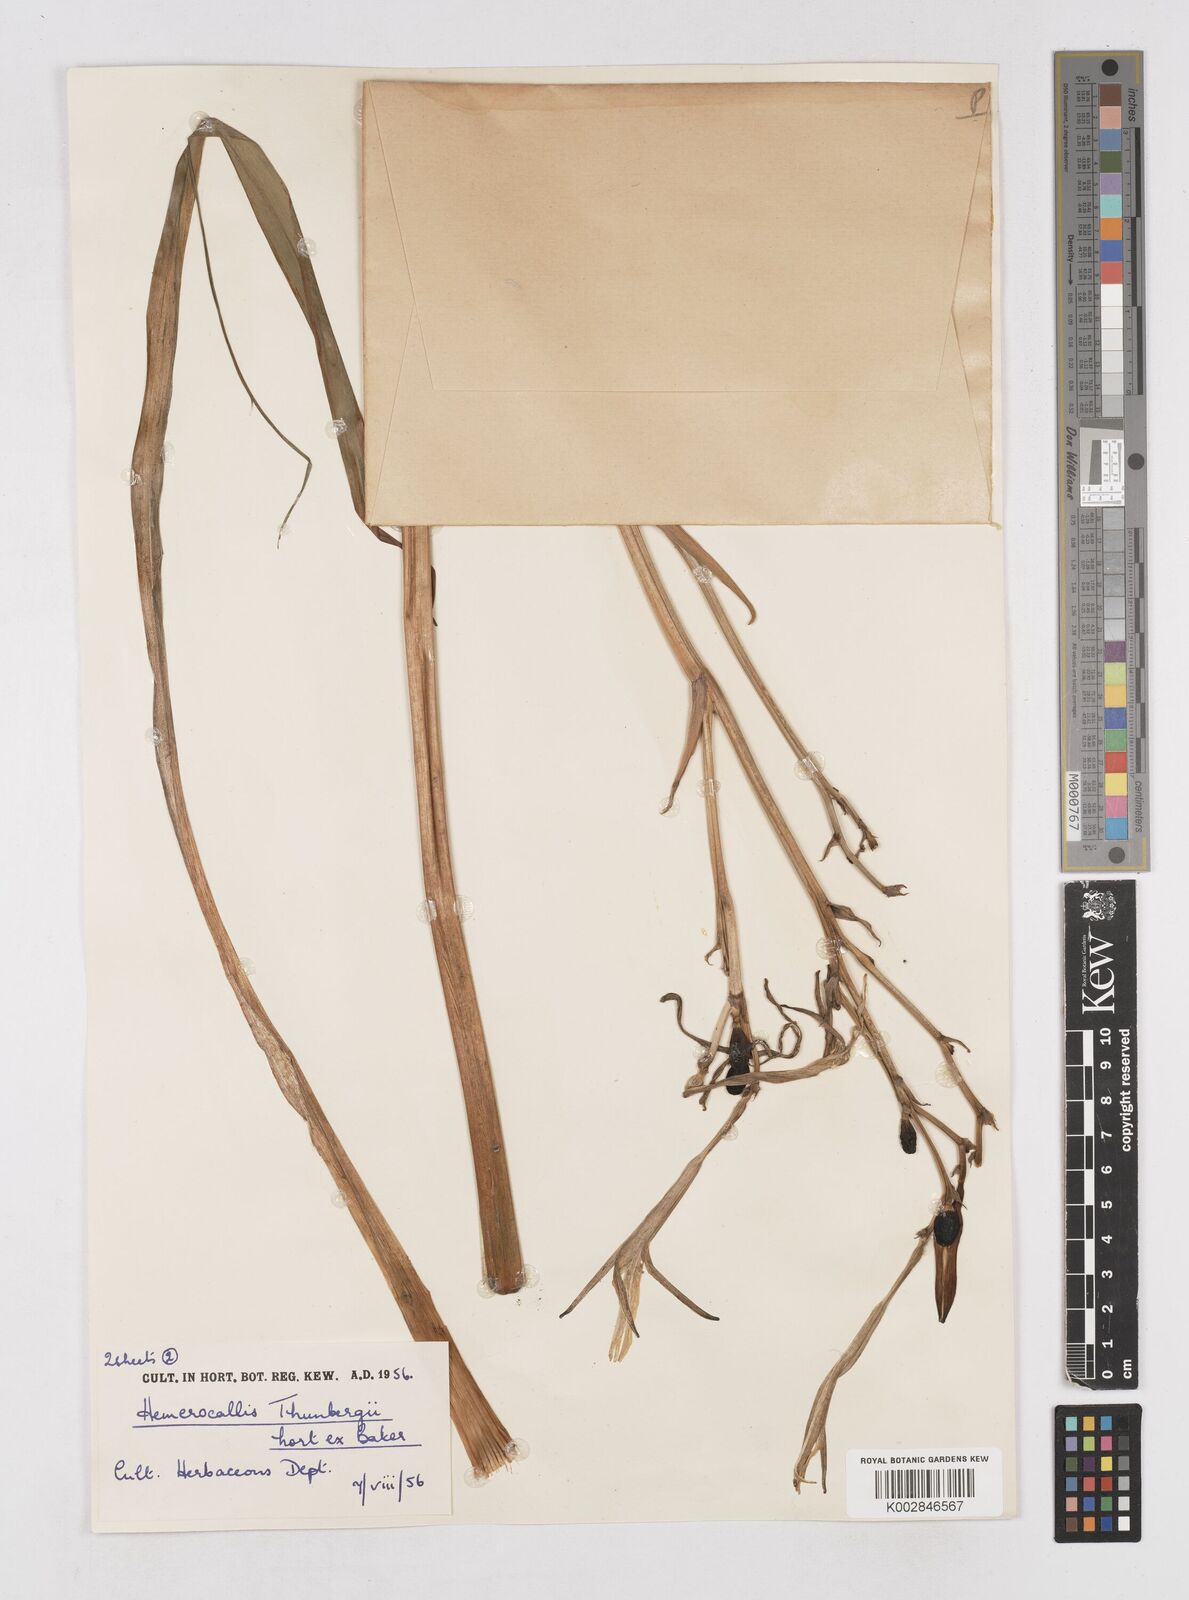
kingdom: Plantae
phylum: Tracheophyta
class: Liliopsida
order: Asparagales
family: Asphodelaceae
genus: Hemerocallis
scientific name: Hemerocallis thunbergii
